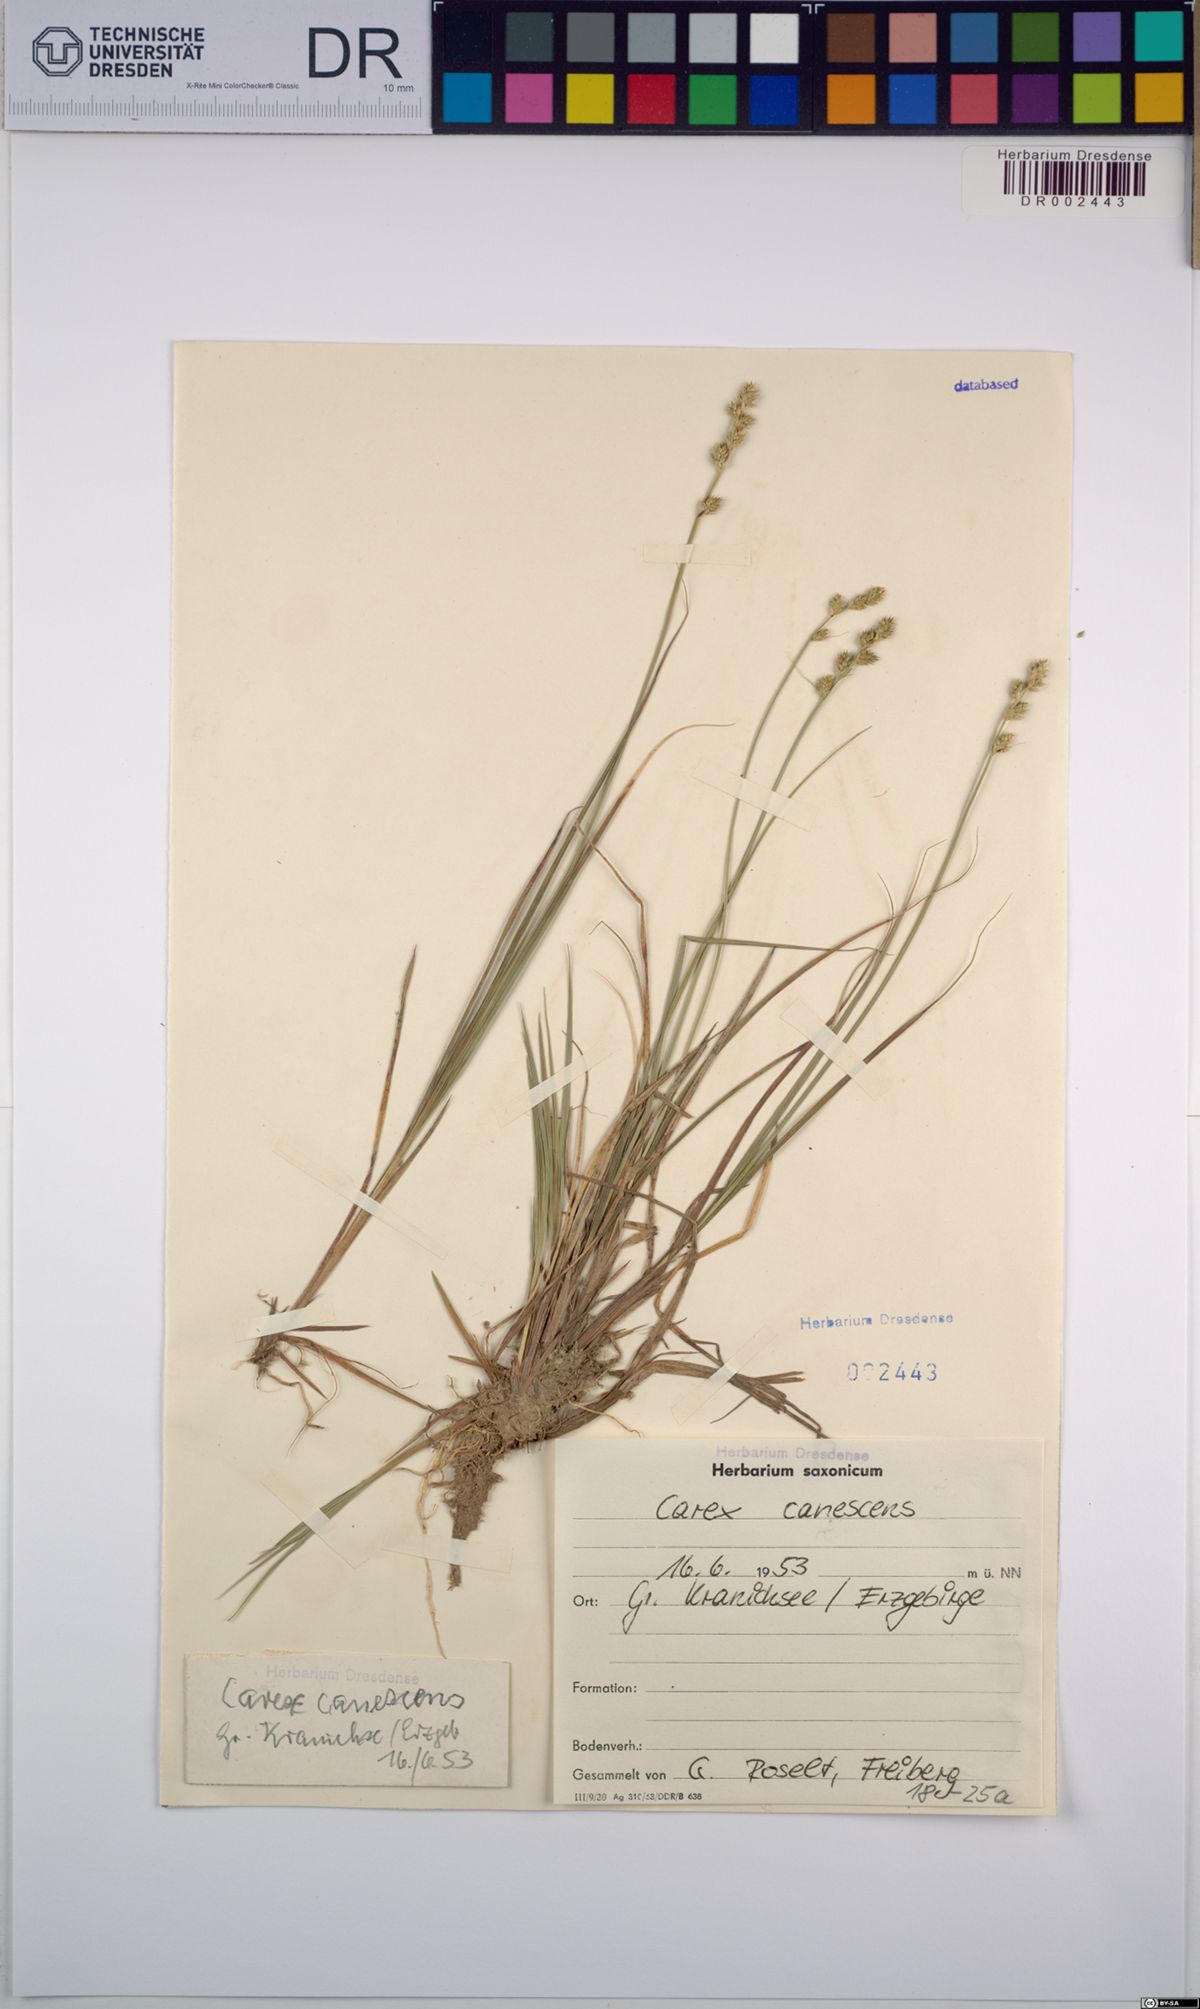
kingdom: Plantae
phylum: Tracheophyta
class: Liliopsida
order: Poales
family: Cyperaceae
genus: Carex
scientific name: Carex canescens
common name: White sedge
